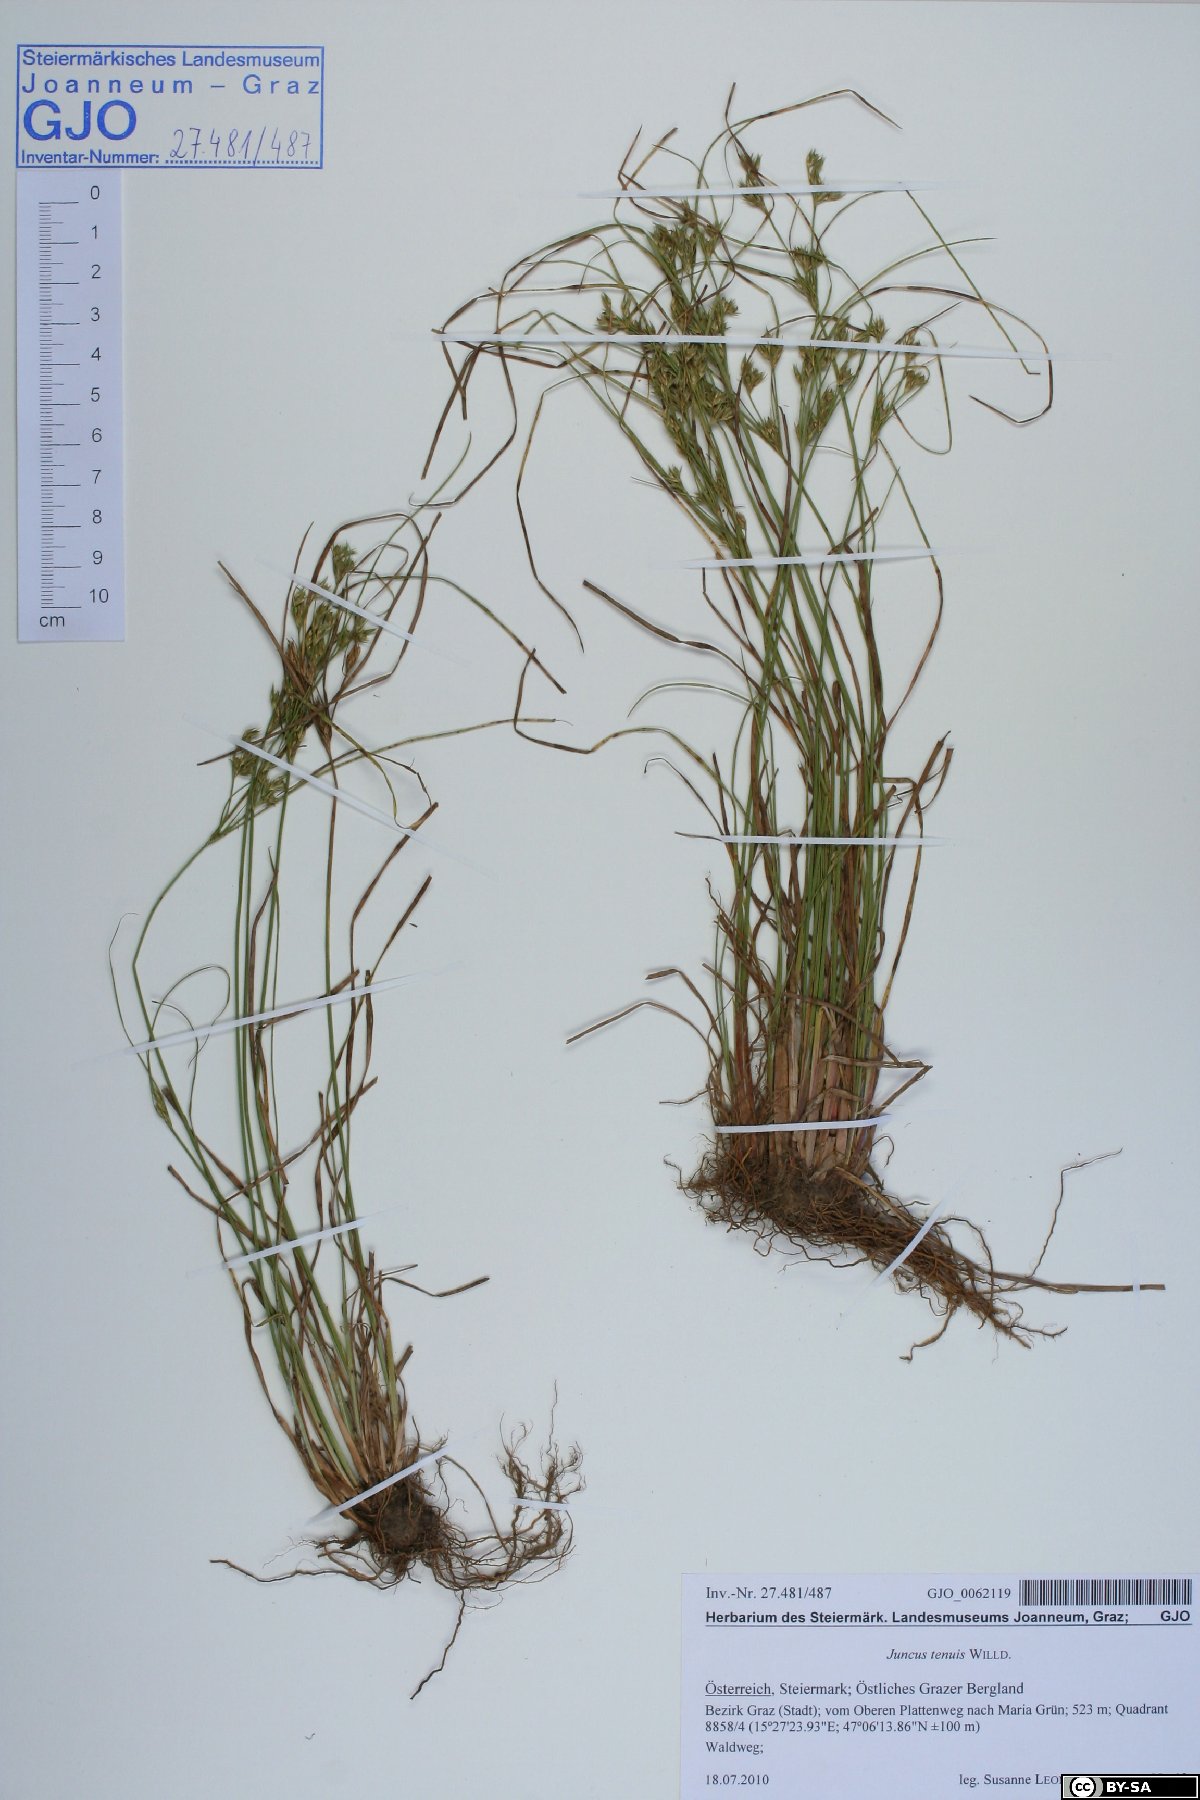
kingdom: Plantae
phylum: Tracheophyta
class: Liliopsida
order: Poales
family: Juncaceae
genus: Juncus
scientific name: Juncus tenuis
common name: Slender rush
